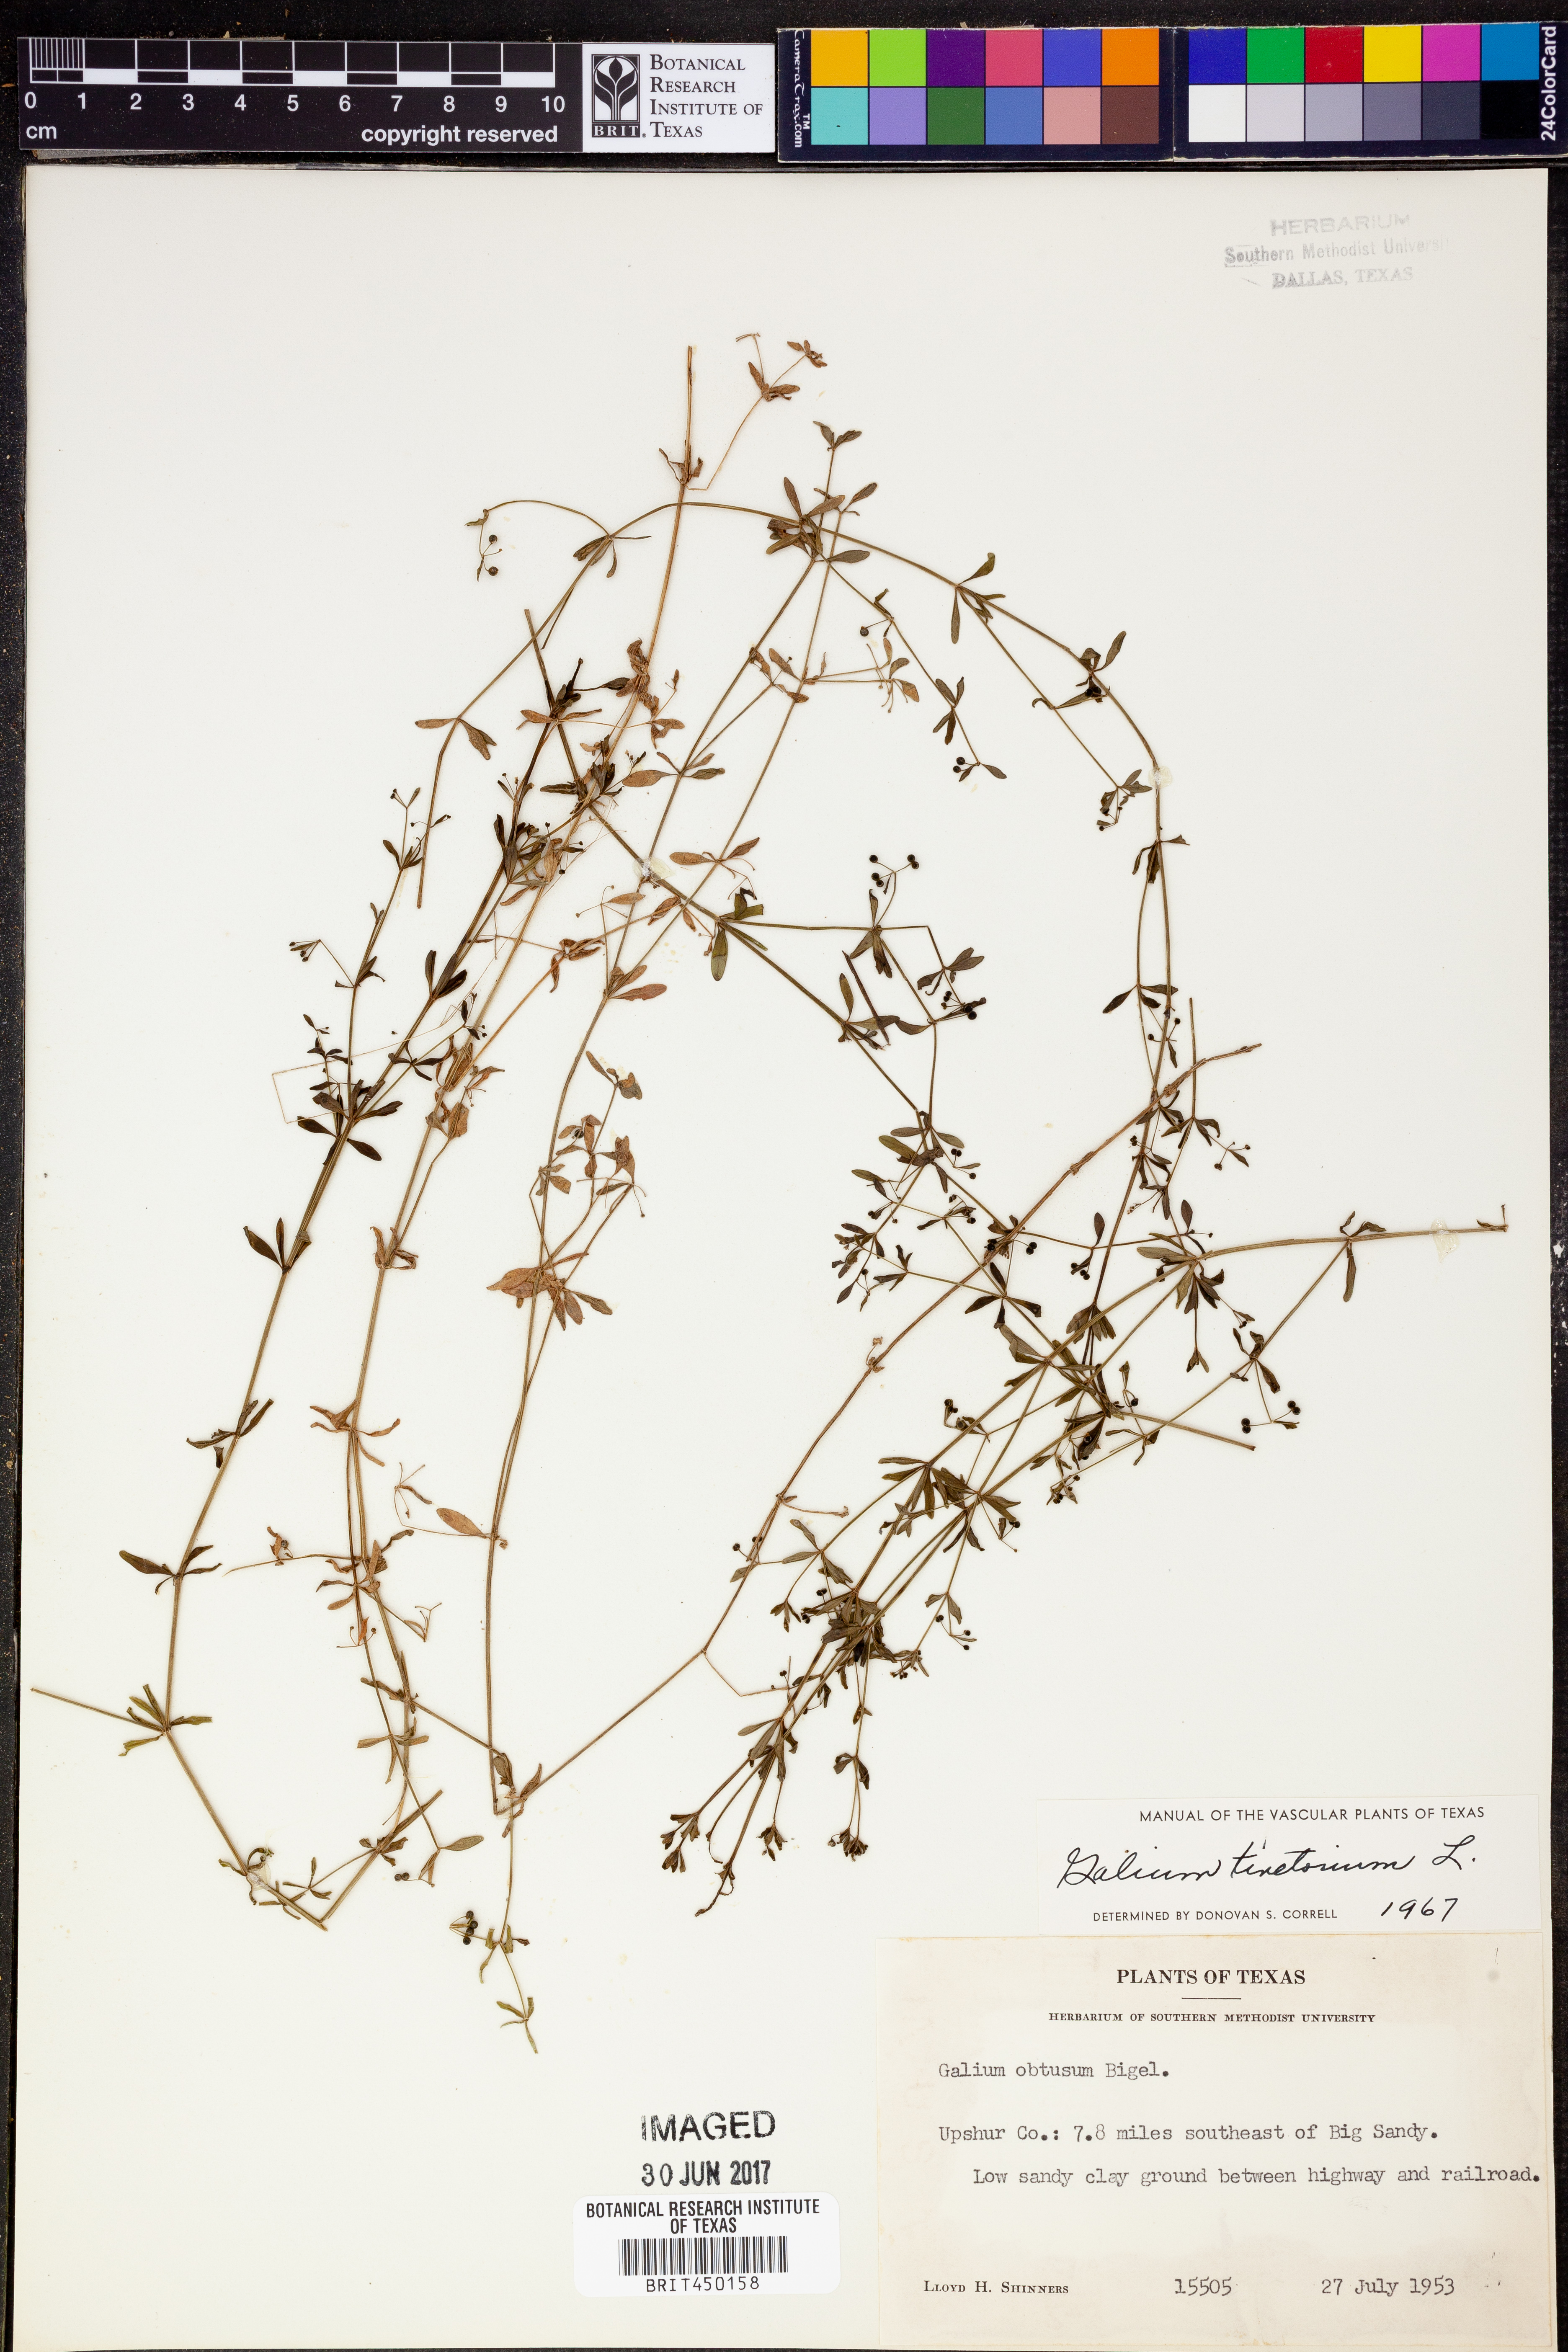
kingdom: Plantae
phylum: Tracheophyta
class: Magnoliopsida
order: Gentianales
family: Rubiaceae
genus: Asperula
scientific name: Asperula tinctoria
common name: Dyer's woodruff
